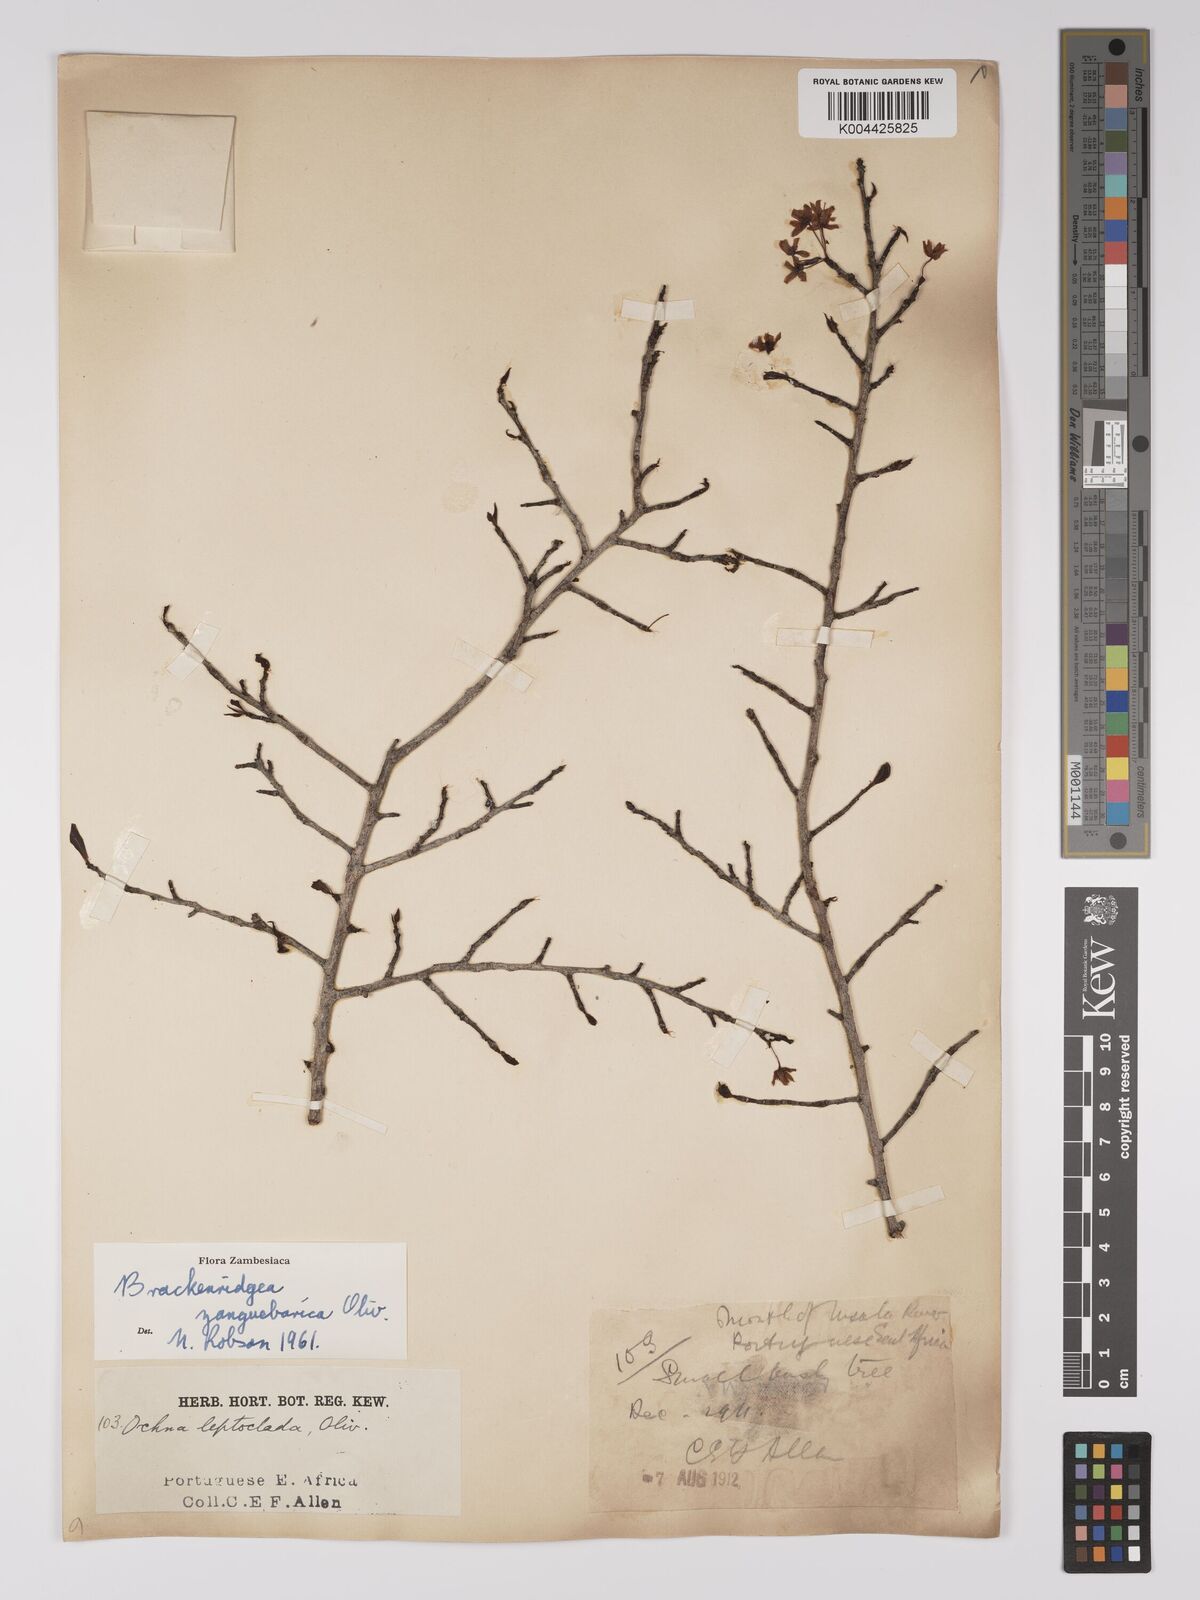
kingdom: Plantae
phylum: Tracheophyta
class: Magnoliopsida
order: Malpighiales
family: Ochnaceae
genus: Brackenridgea
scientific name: Brackenridgea zanguebarica
